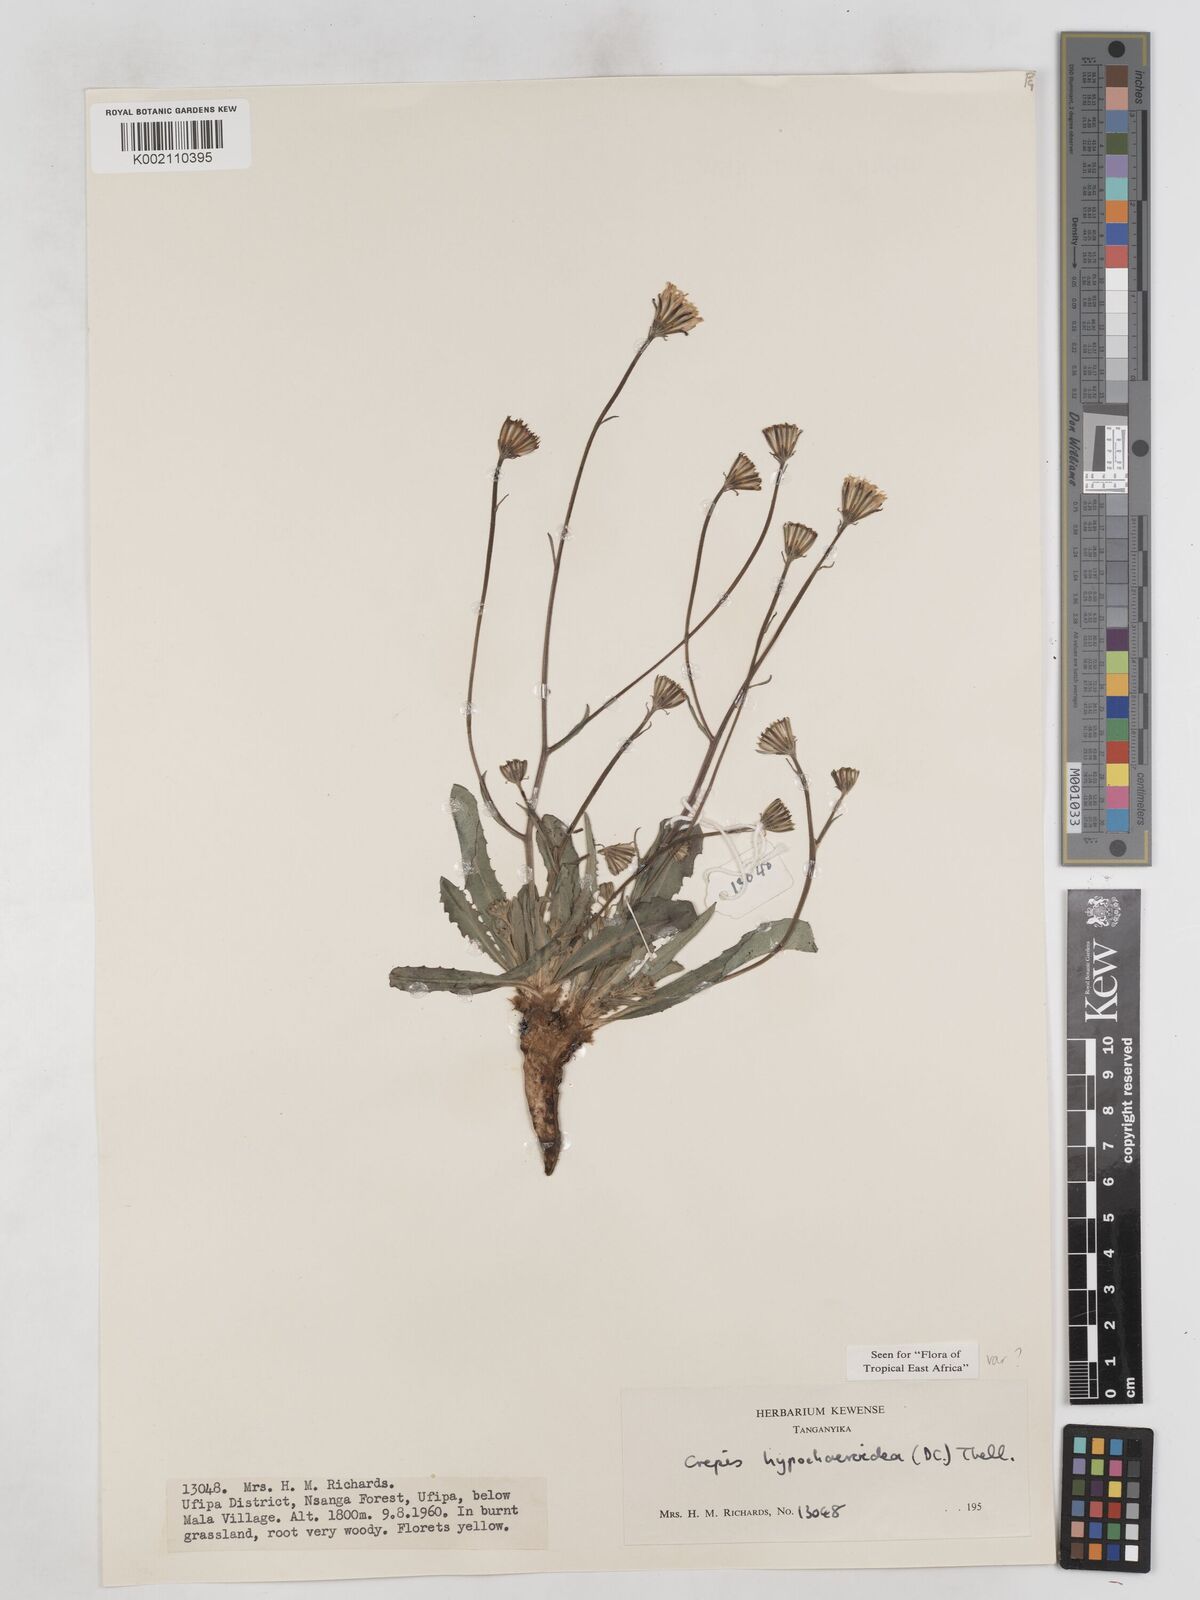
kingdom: Plantae
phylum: Tracheophyta
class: Magnoliopsida
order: Asterales
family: Asteraceae
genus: Crepis
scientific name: Crepis hypochoeridea
